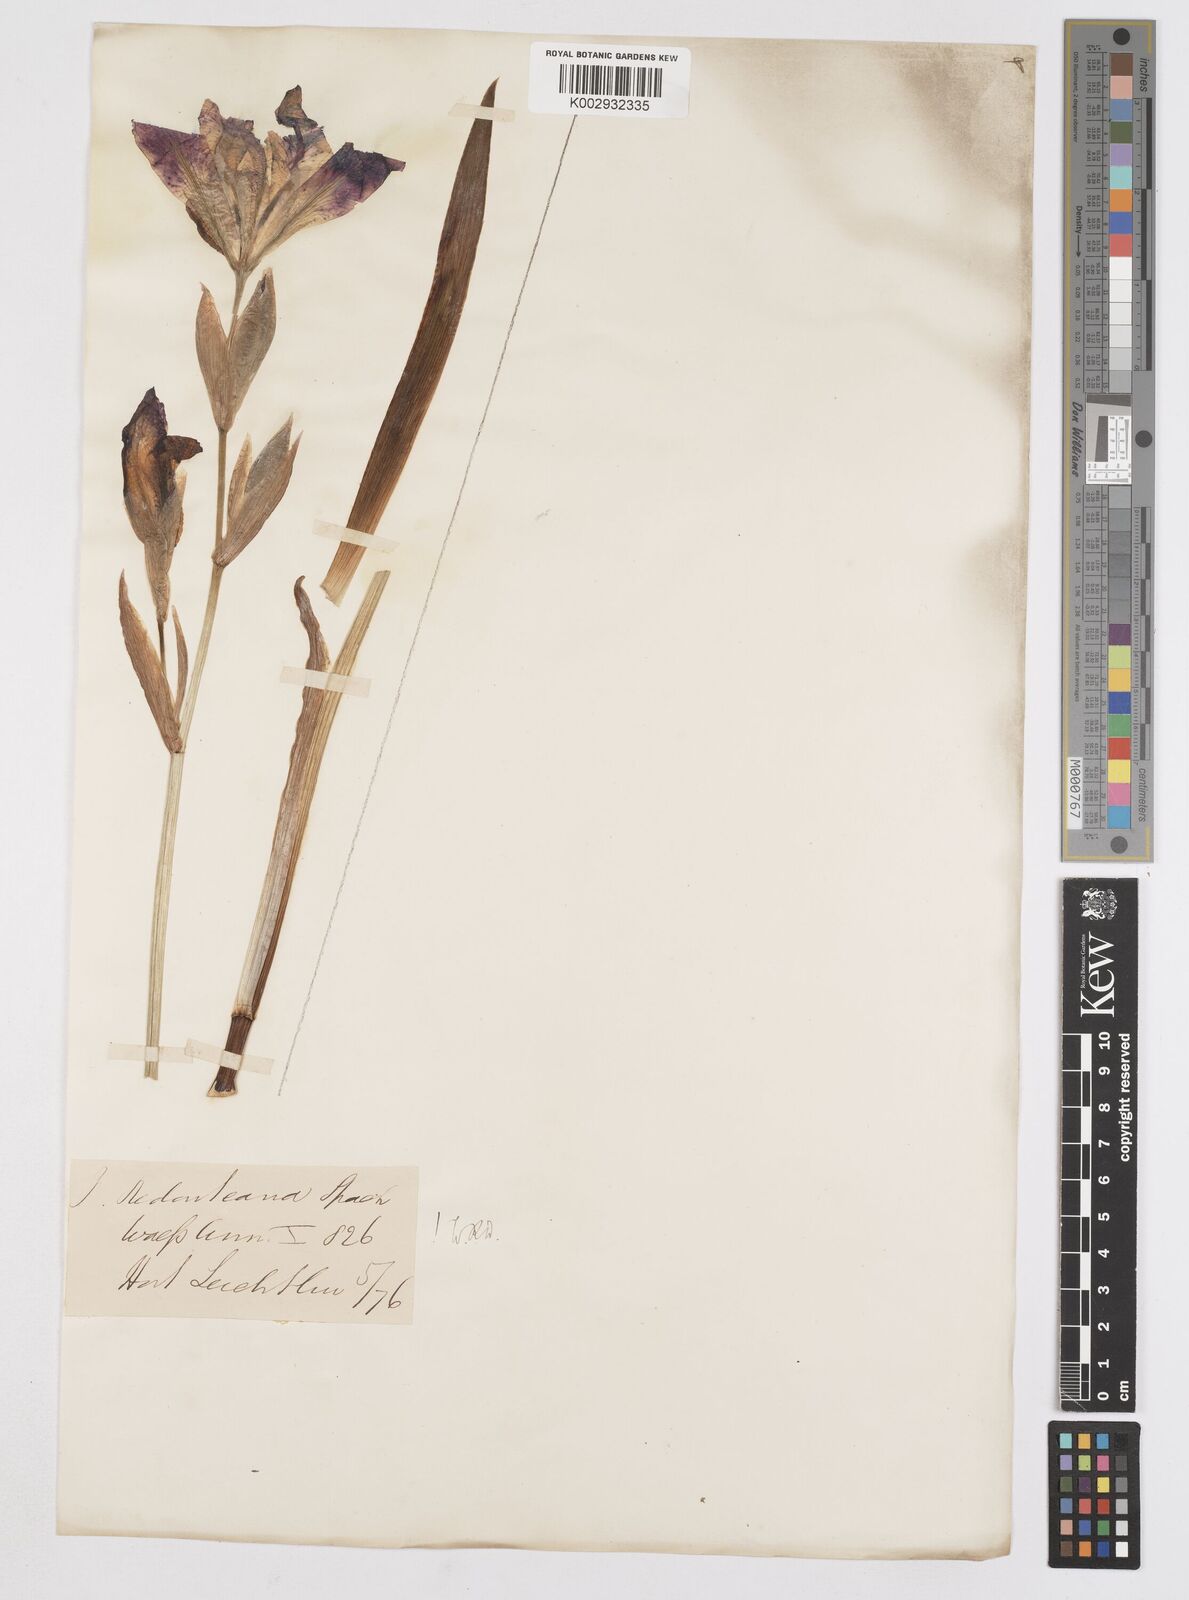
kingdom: Plantae
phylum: Tracheophyta
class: Liliopsida
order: Asparagales
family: Iridaceae
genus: Iris
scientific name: Iris
